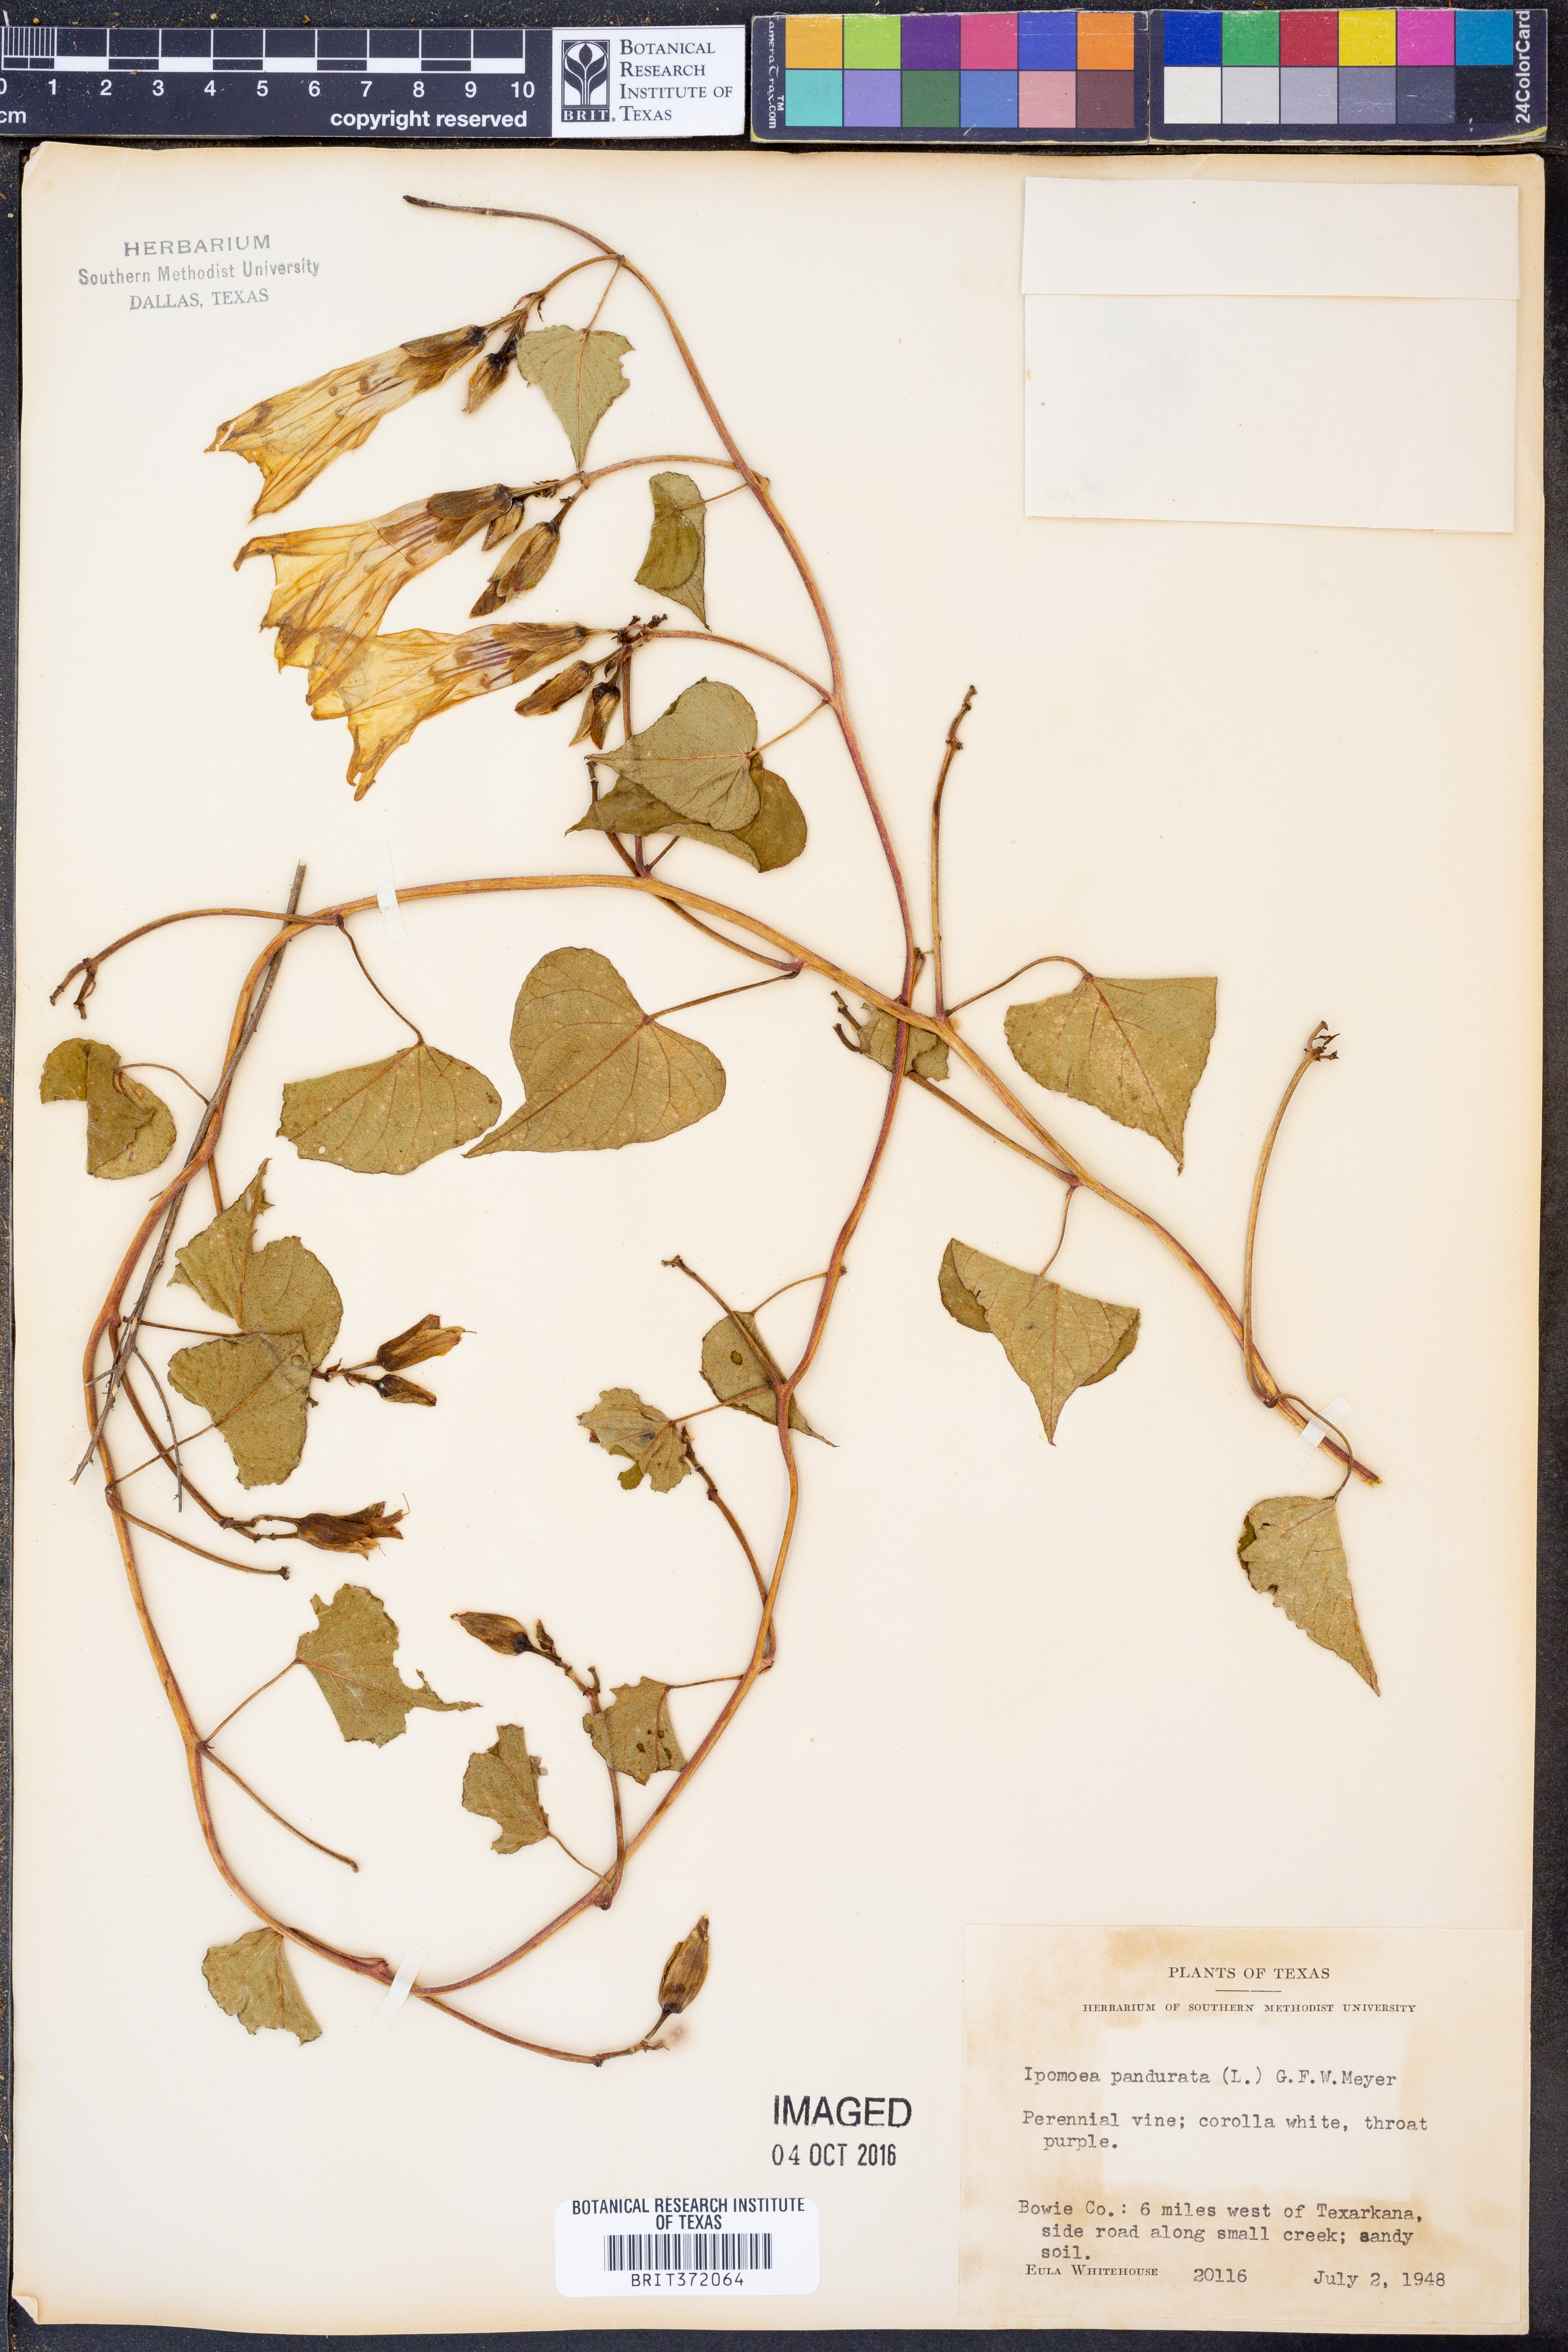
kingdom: Plantae
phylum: Tracheophyta
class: Magnoliopsida
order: Solanales
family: Convolvulaceae
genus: Ipomoea
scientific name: Ipomoea pandurata
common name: Man-of-the-earth
